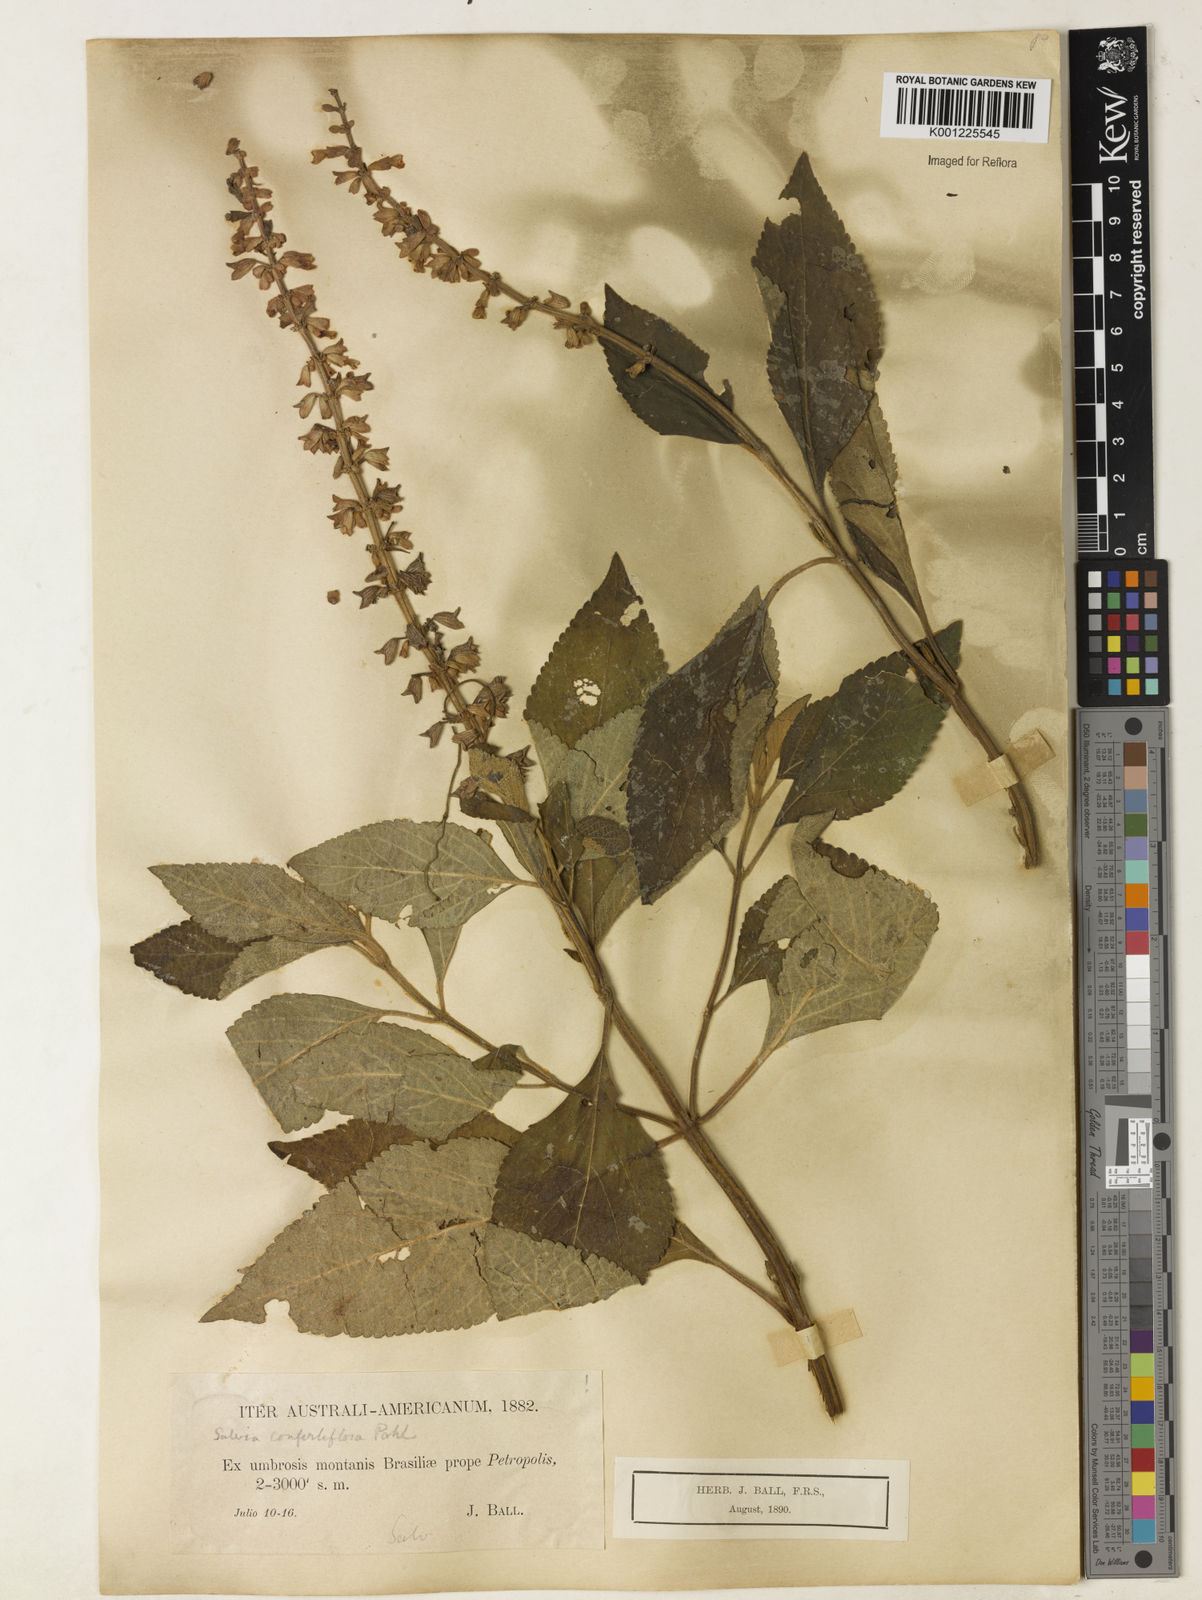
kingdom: Plantae
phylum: Tracheophyta
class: Magnoliopsida
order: Lamiales
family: Lamiaceae
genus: Salvia
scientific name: Salvia confertiflora
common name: Sabra-spike sage
